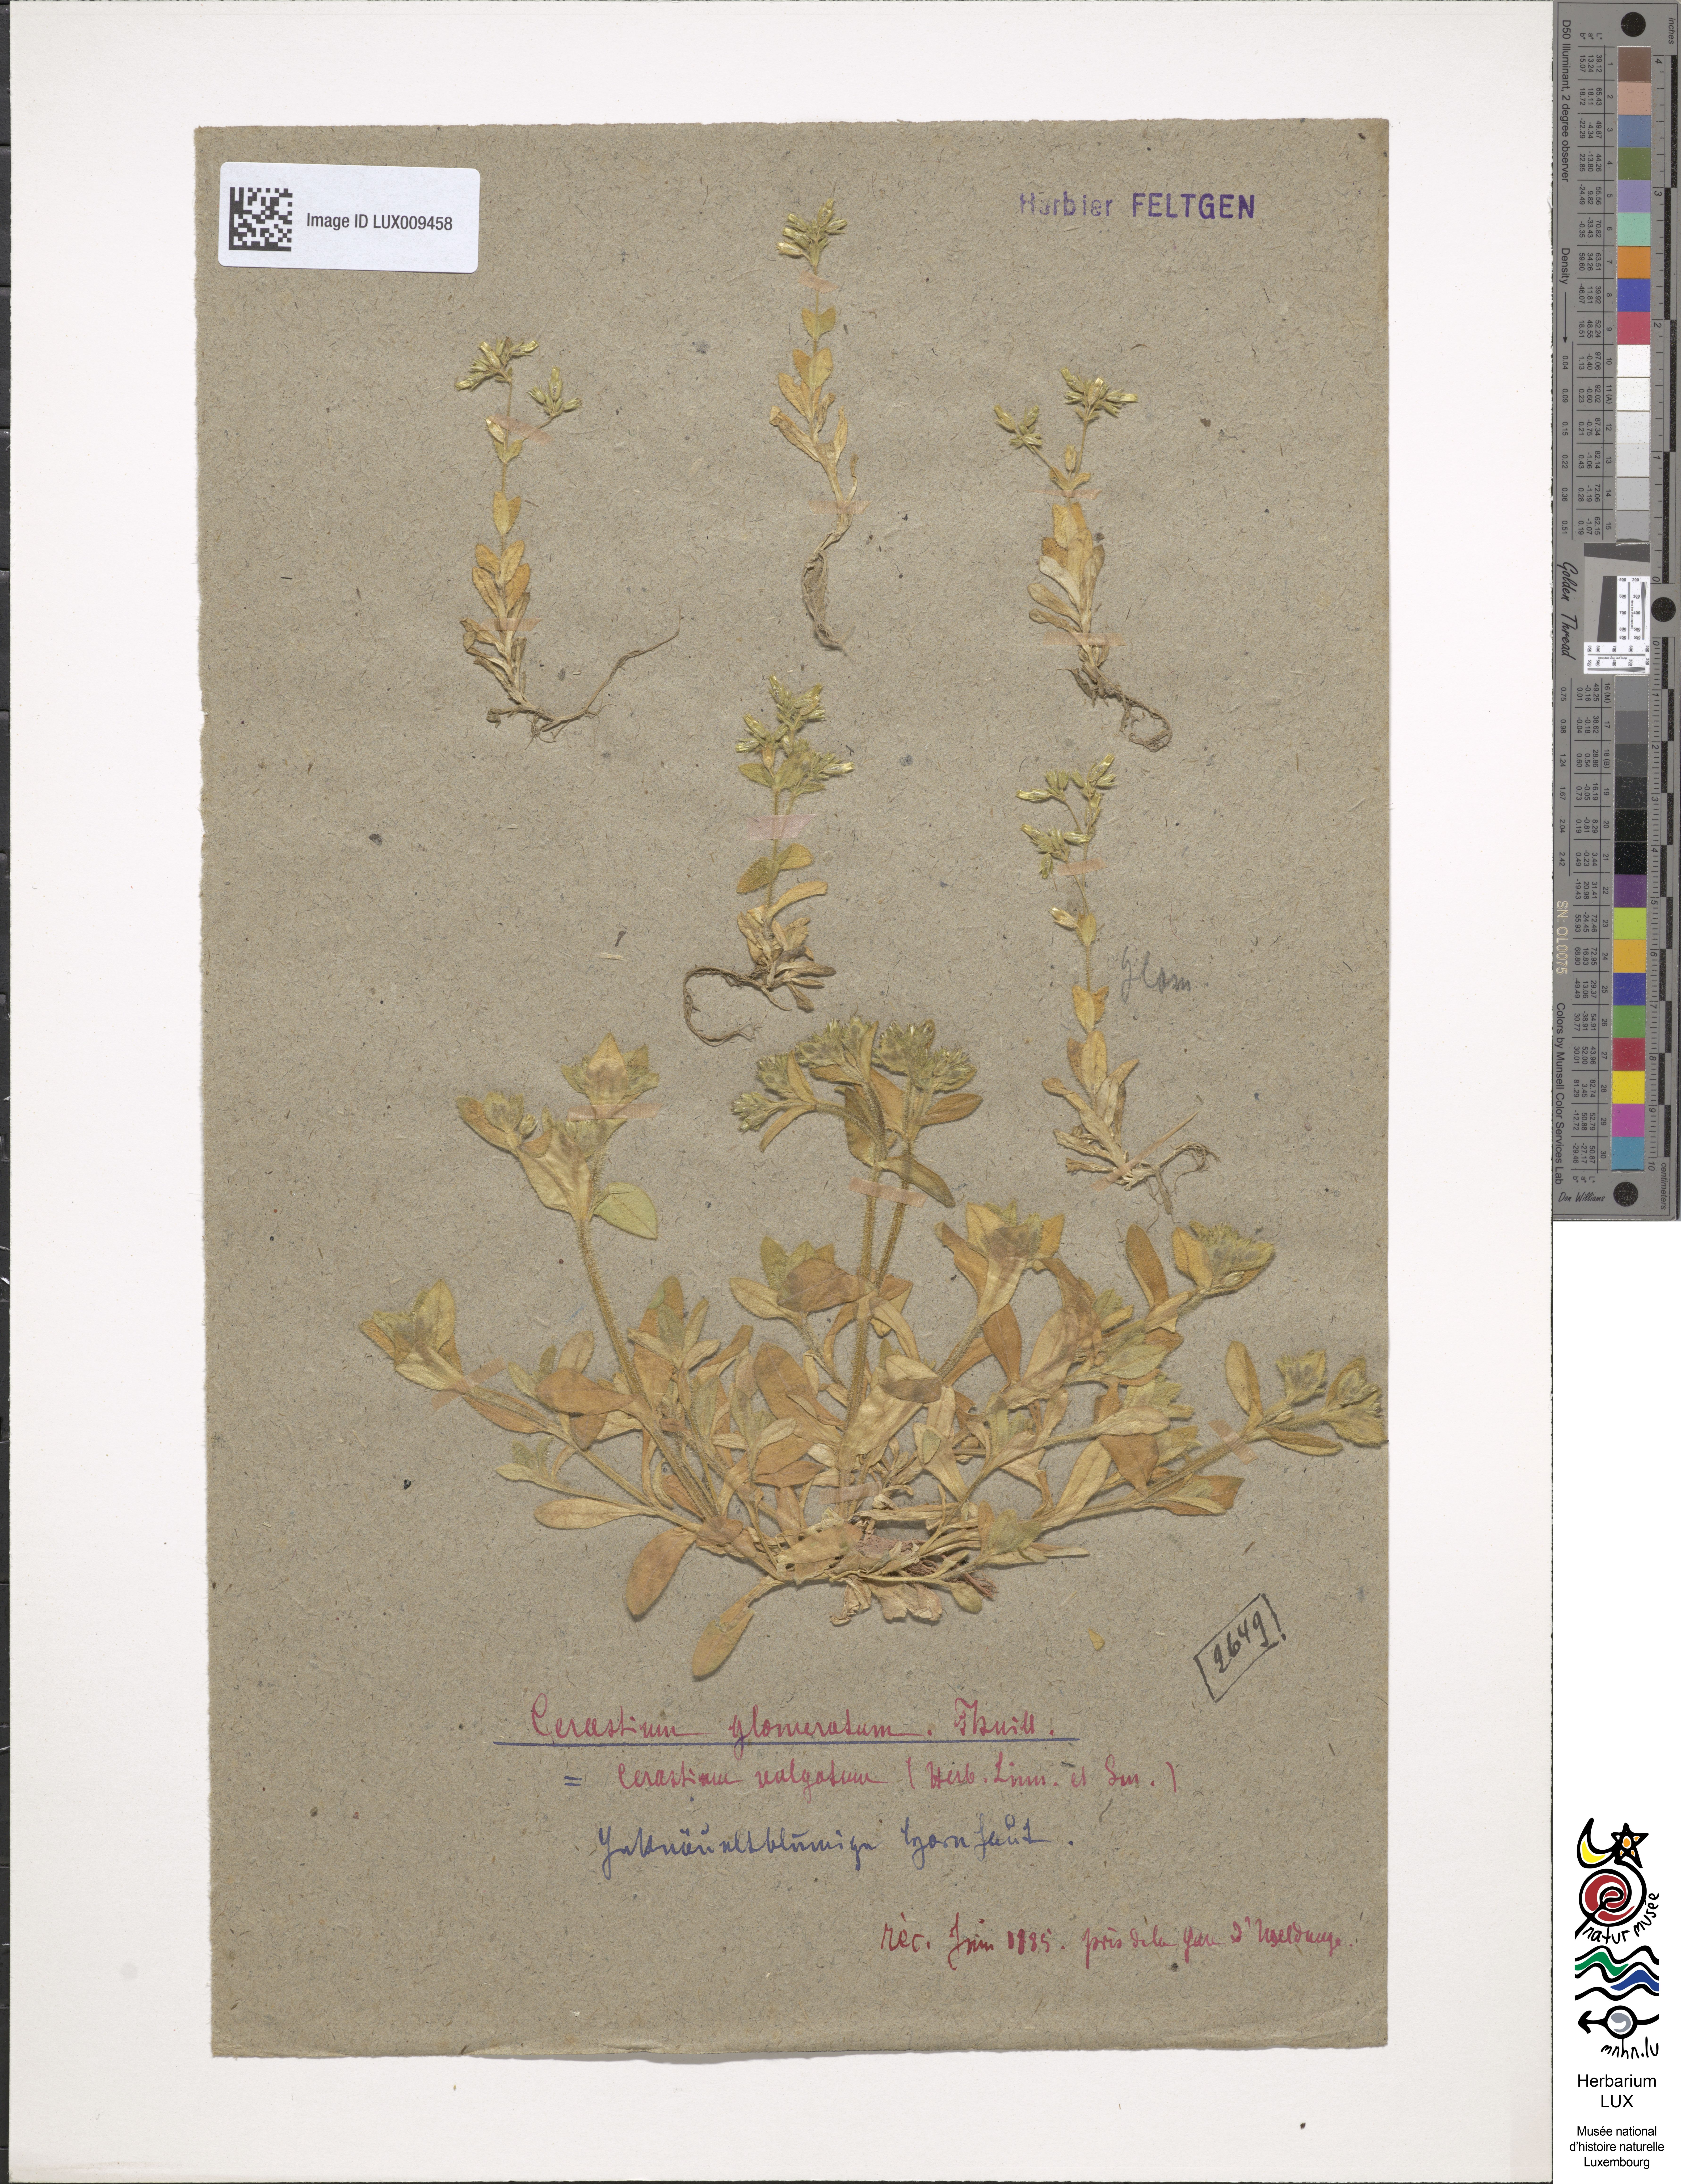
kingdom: Plantae
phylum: Tracheophyta
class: Magnoliopsida
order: Caryophyllales
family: Caryophyllaceae
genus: Cerastium
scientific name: Cerastium glomeratum
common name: Sticky chickweed
